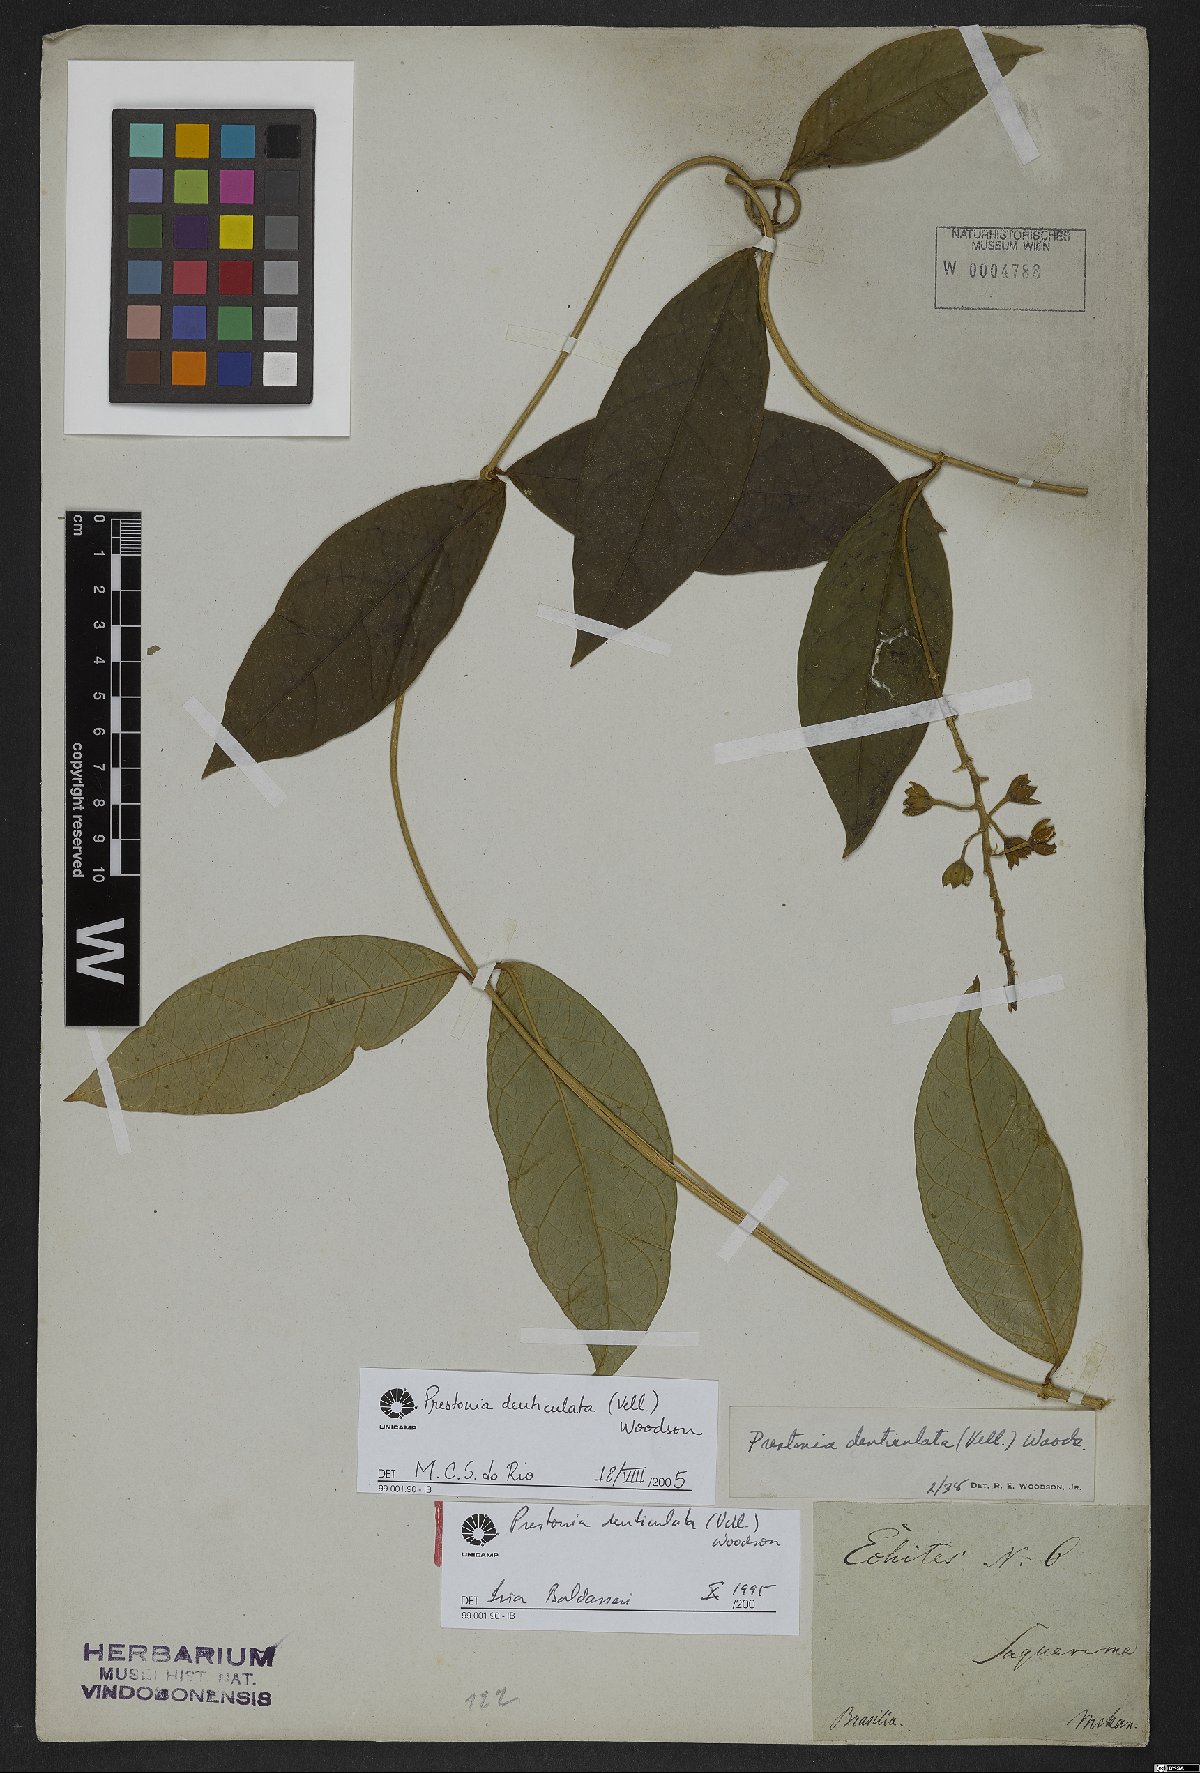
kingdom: Plantae
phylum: Tracheophyta
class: Magnoliopsida
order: Gentianales
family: Apocynaceae
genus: Prestonia
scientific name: Prestonia denticulata
